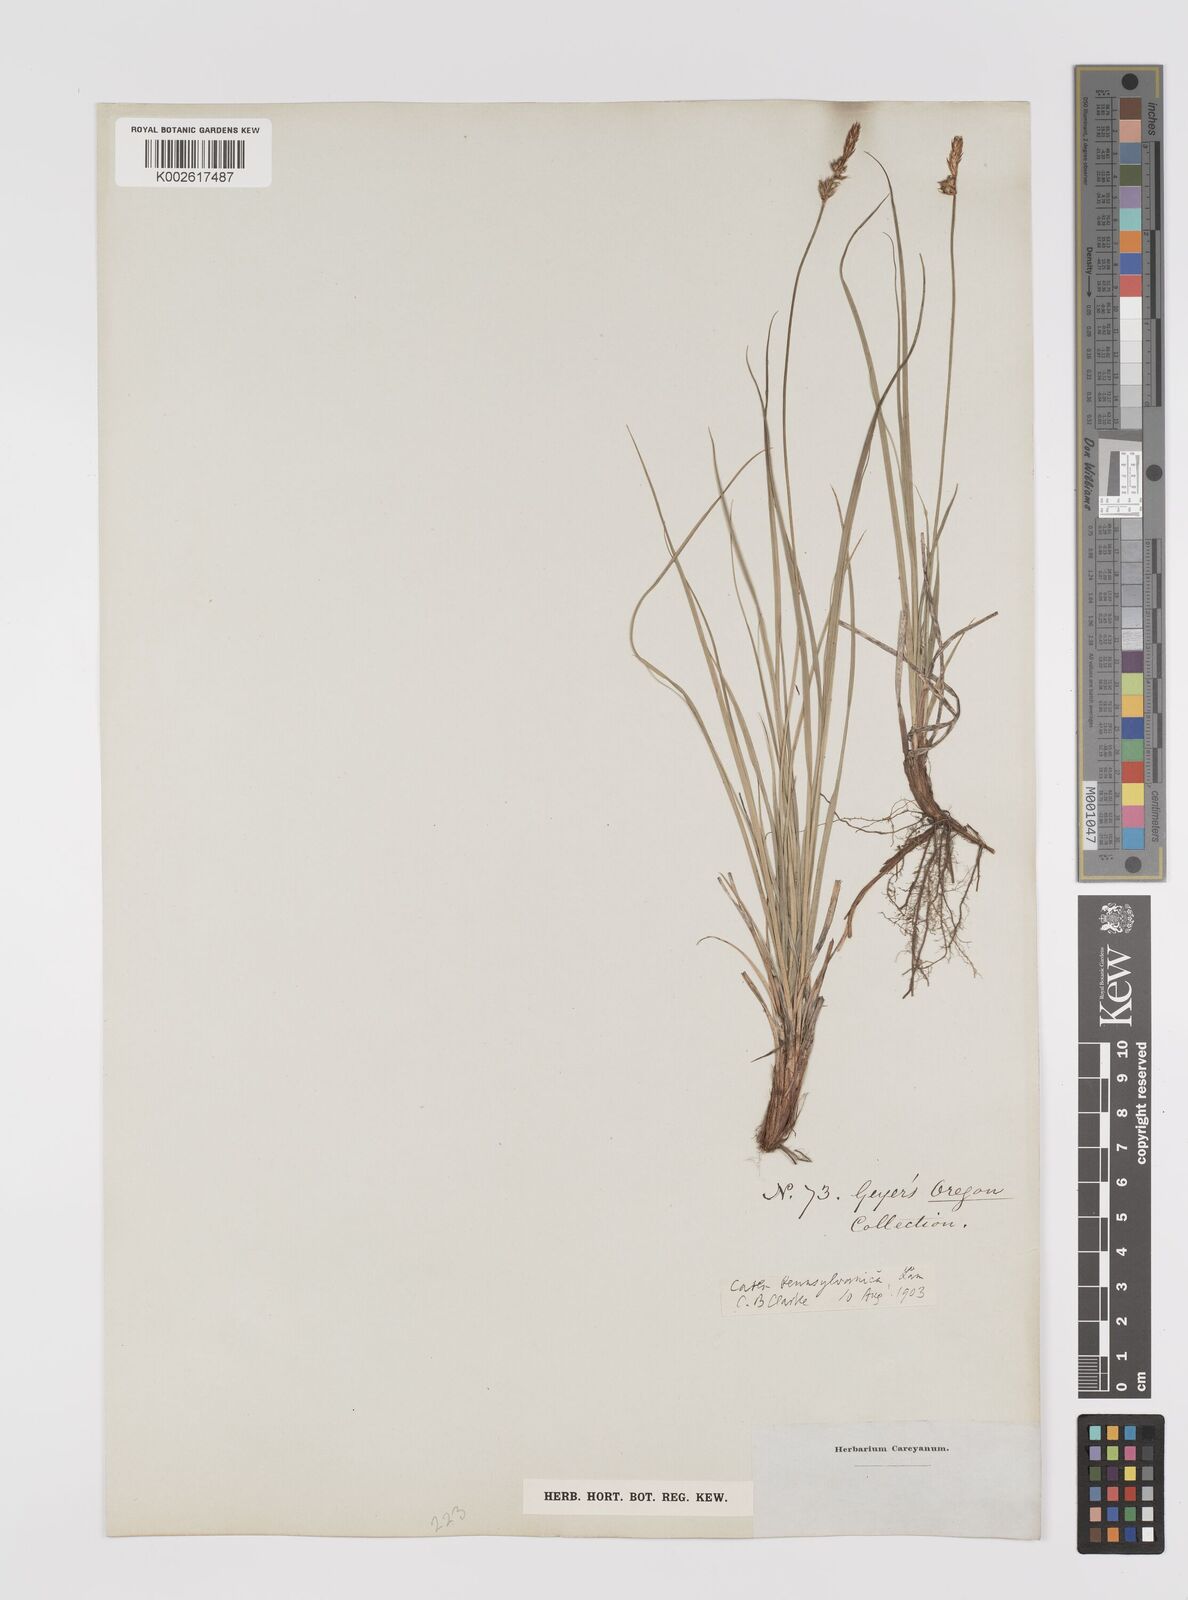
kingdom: Plantae
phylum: Tracheophyta
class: Liliopsida
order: Poales
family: Cyperaceae
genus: Carex
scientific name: Carex pensylvanica
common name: Common oak sedge
